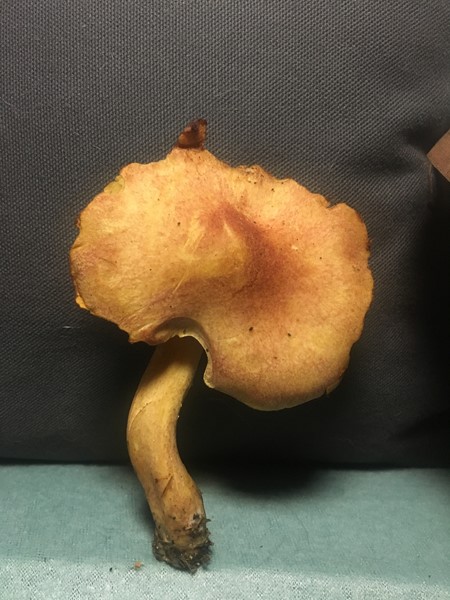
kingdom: Fungi
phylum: Basidiomycota
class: Agaricomycetes
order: Agaricales
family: Tricholomataceae
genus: Tricholomopsis
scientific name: Tricholomopsis rutilans
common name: purpur-væbnerhat
